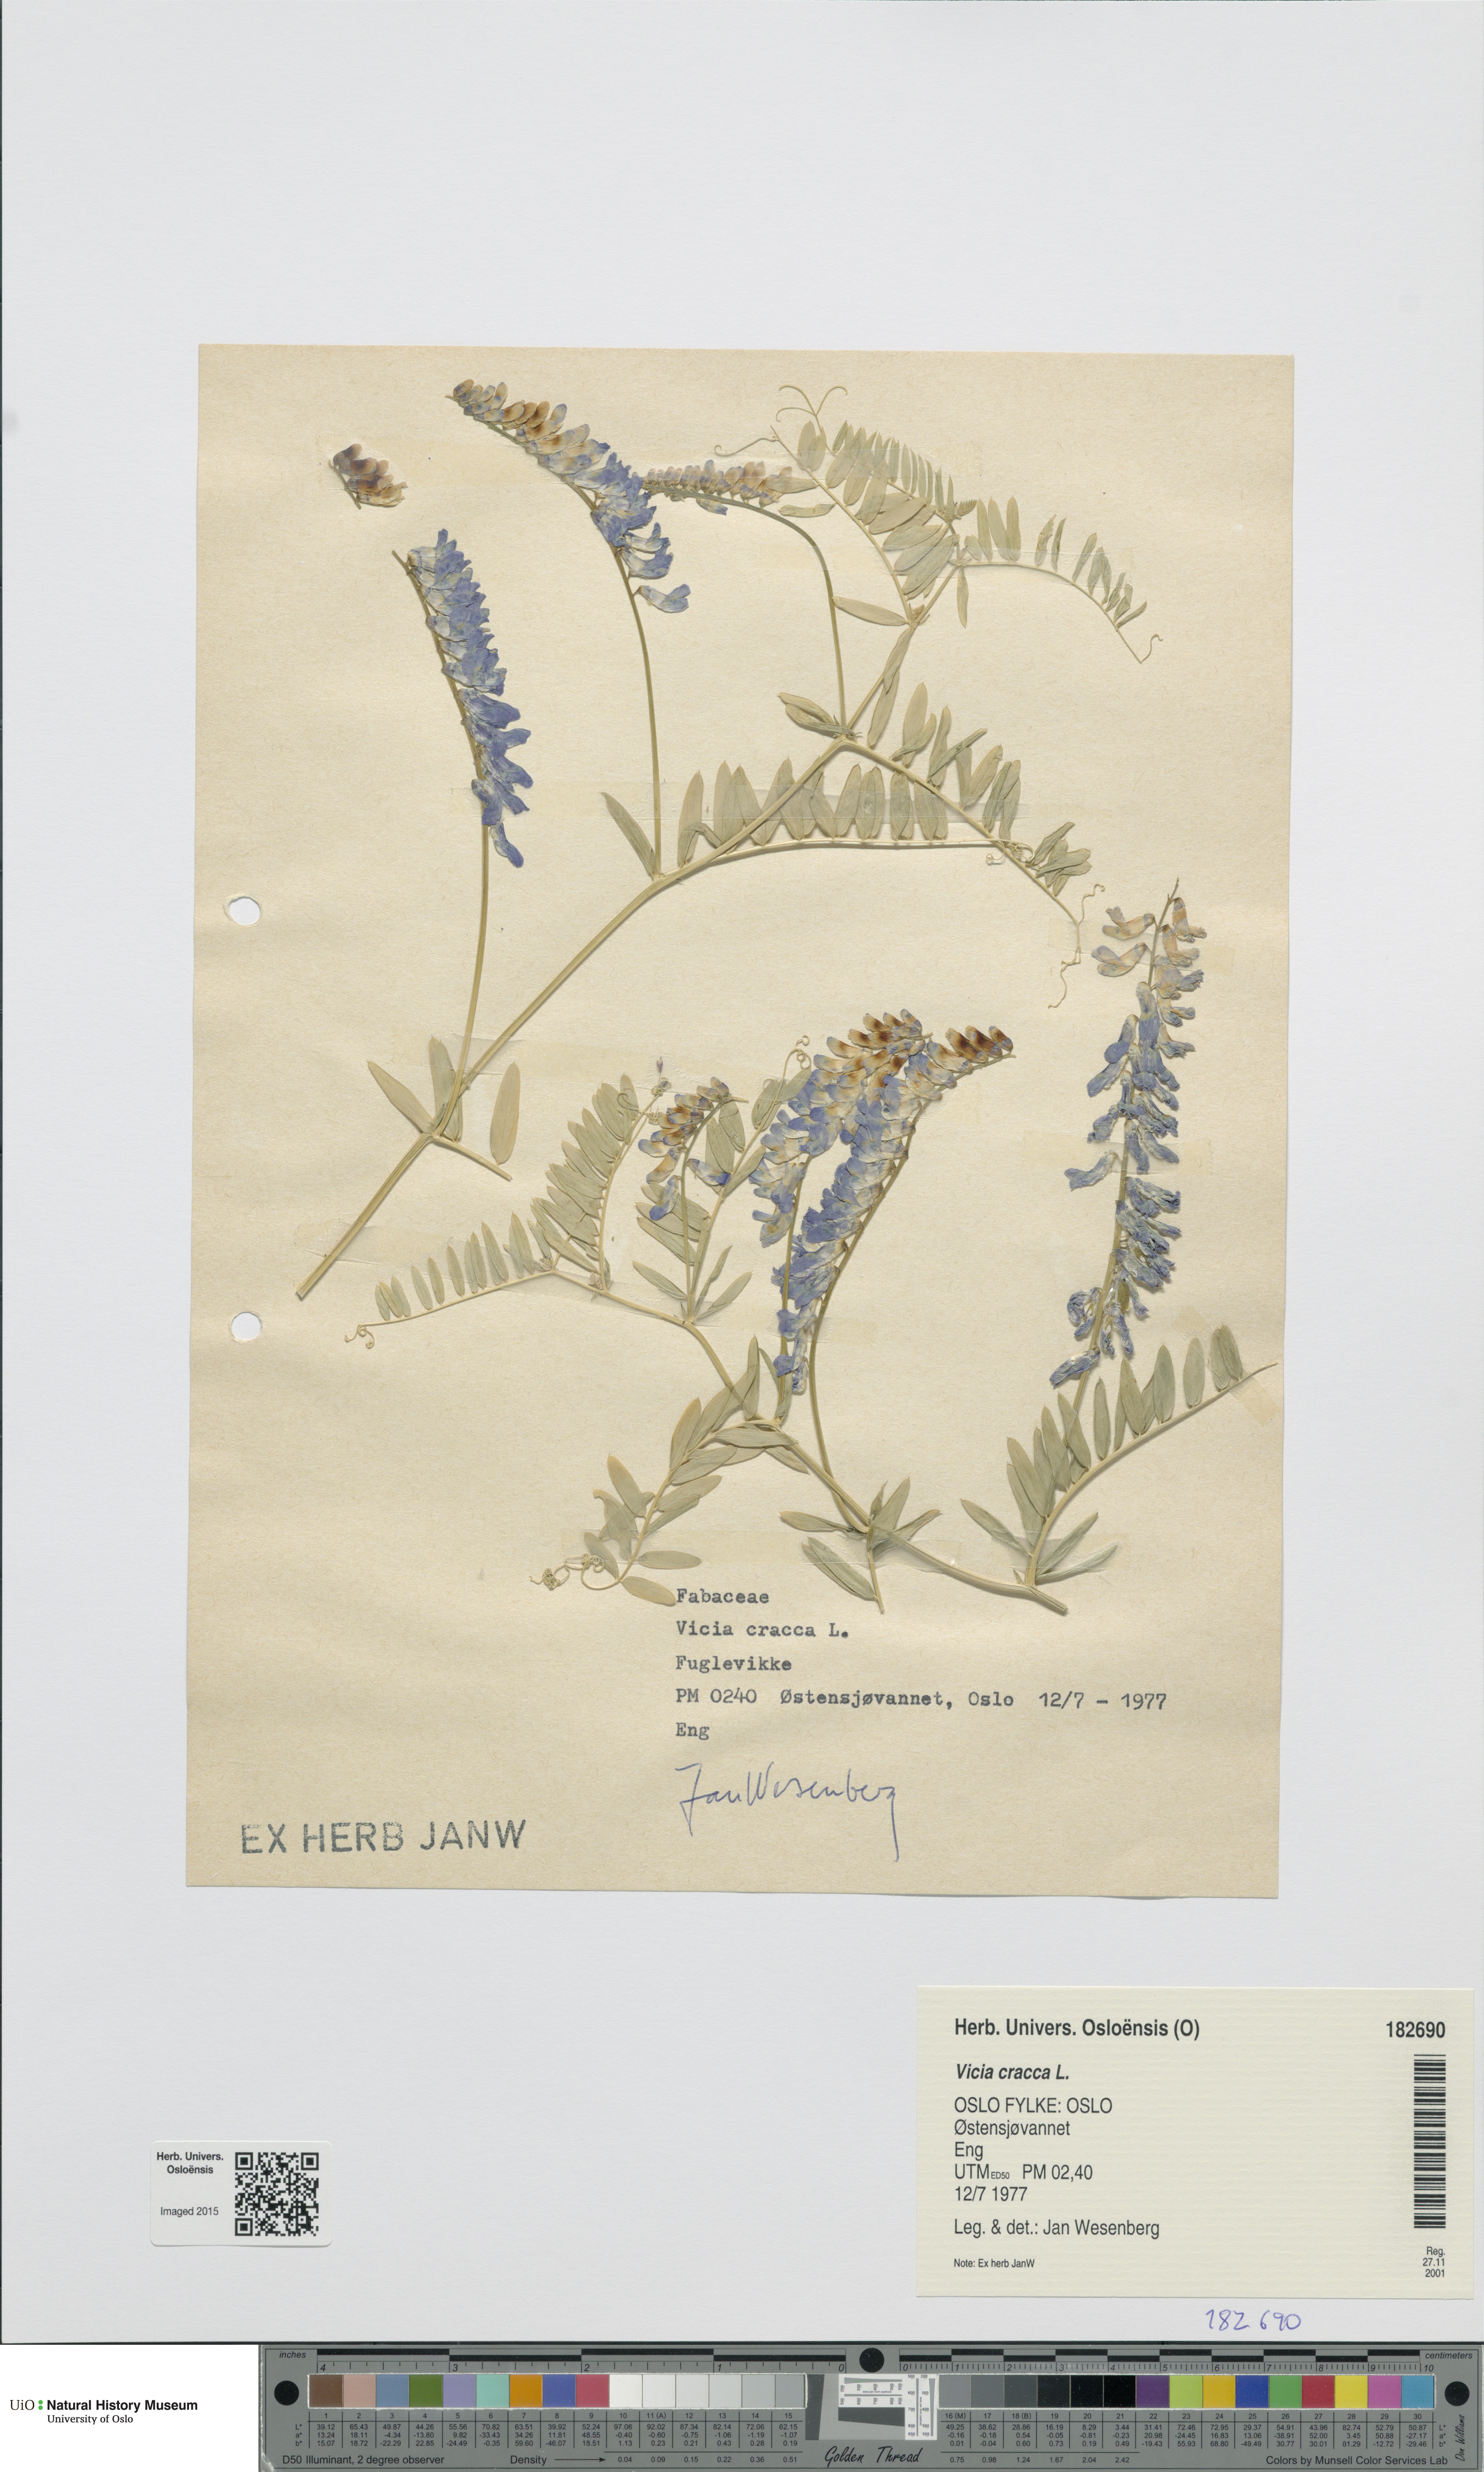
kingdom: Plantae
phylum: Tracheophyta
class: Magnoliopsida
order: Fabales
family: Fabaceae
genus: Vicia
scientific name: Vicia cracca
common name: Bird vetch
